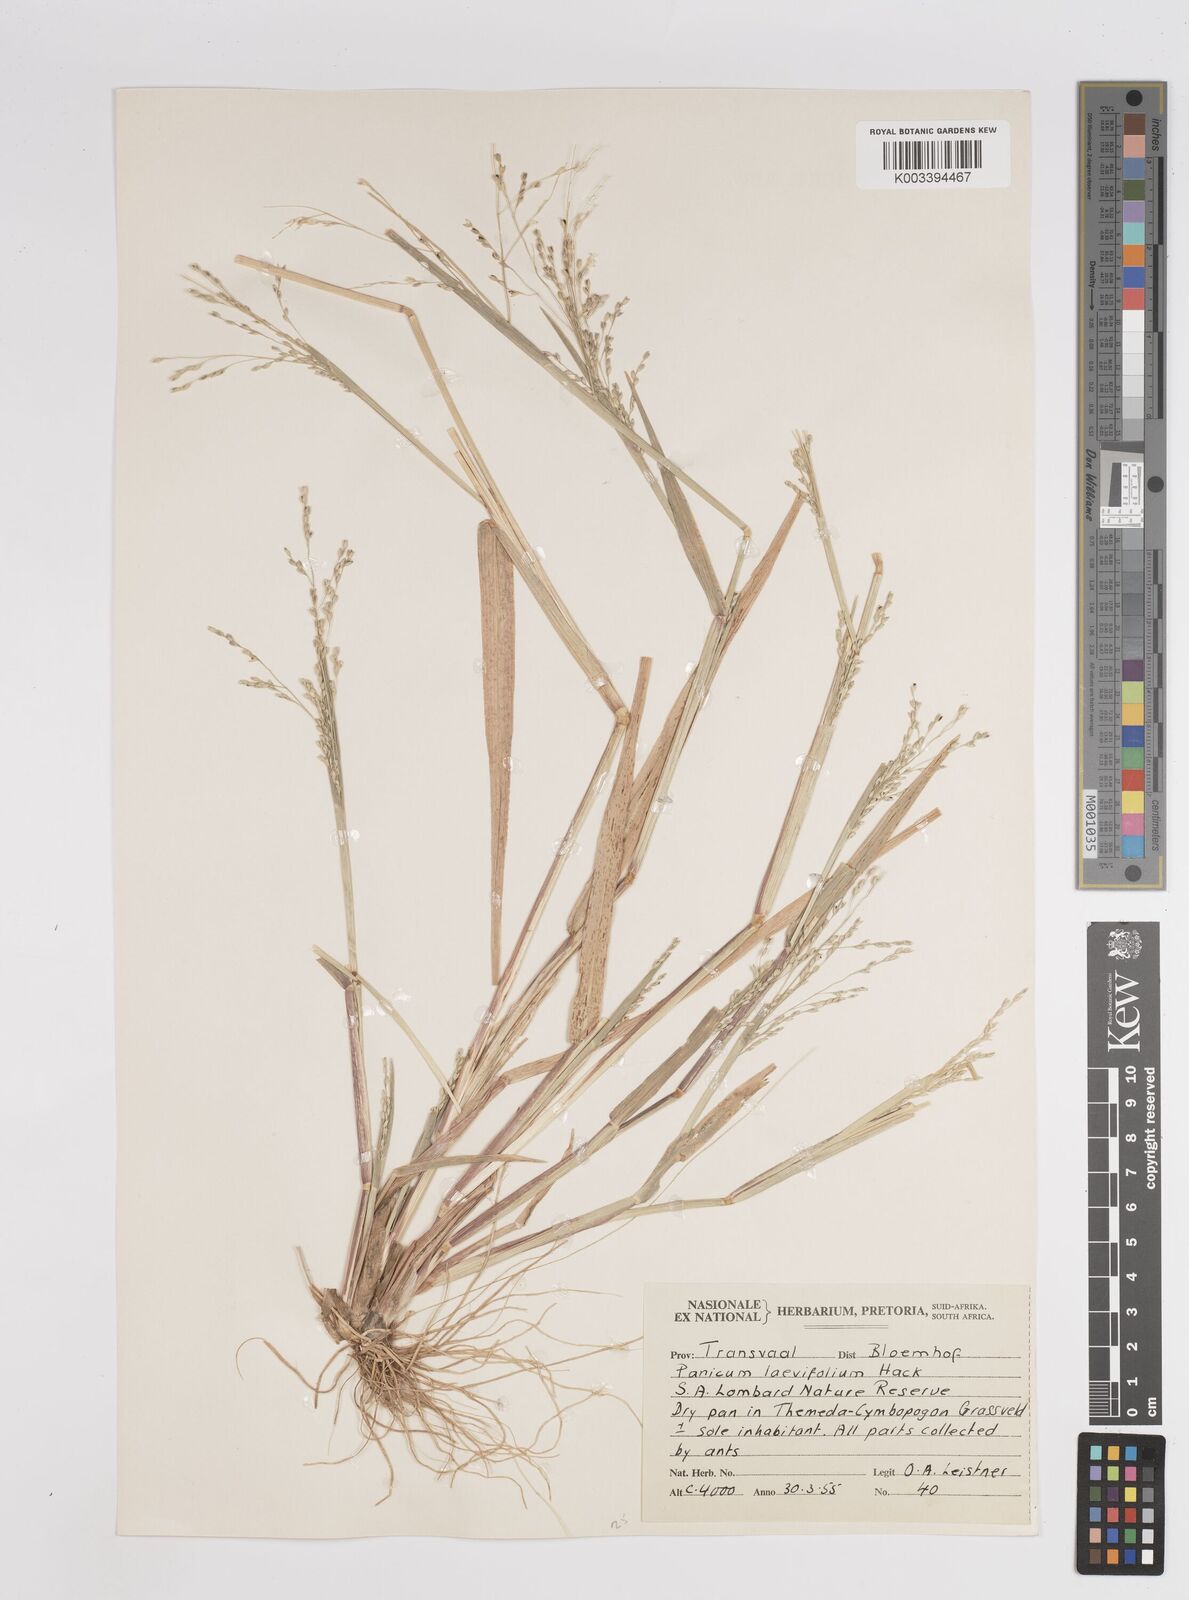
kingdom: Plantae
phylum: Tracheophyta
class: Liliopsida
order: Poales
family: Poaceae
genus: Panicum
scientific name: Panicum
